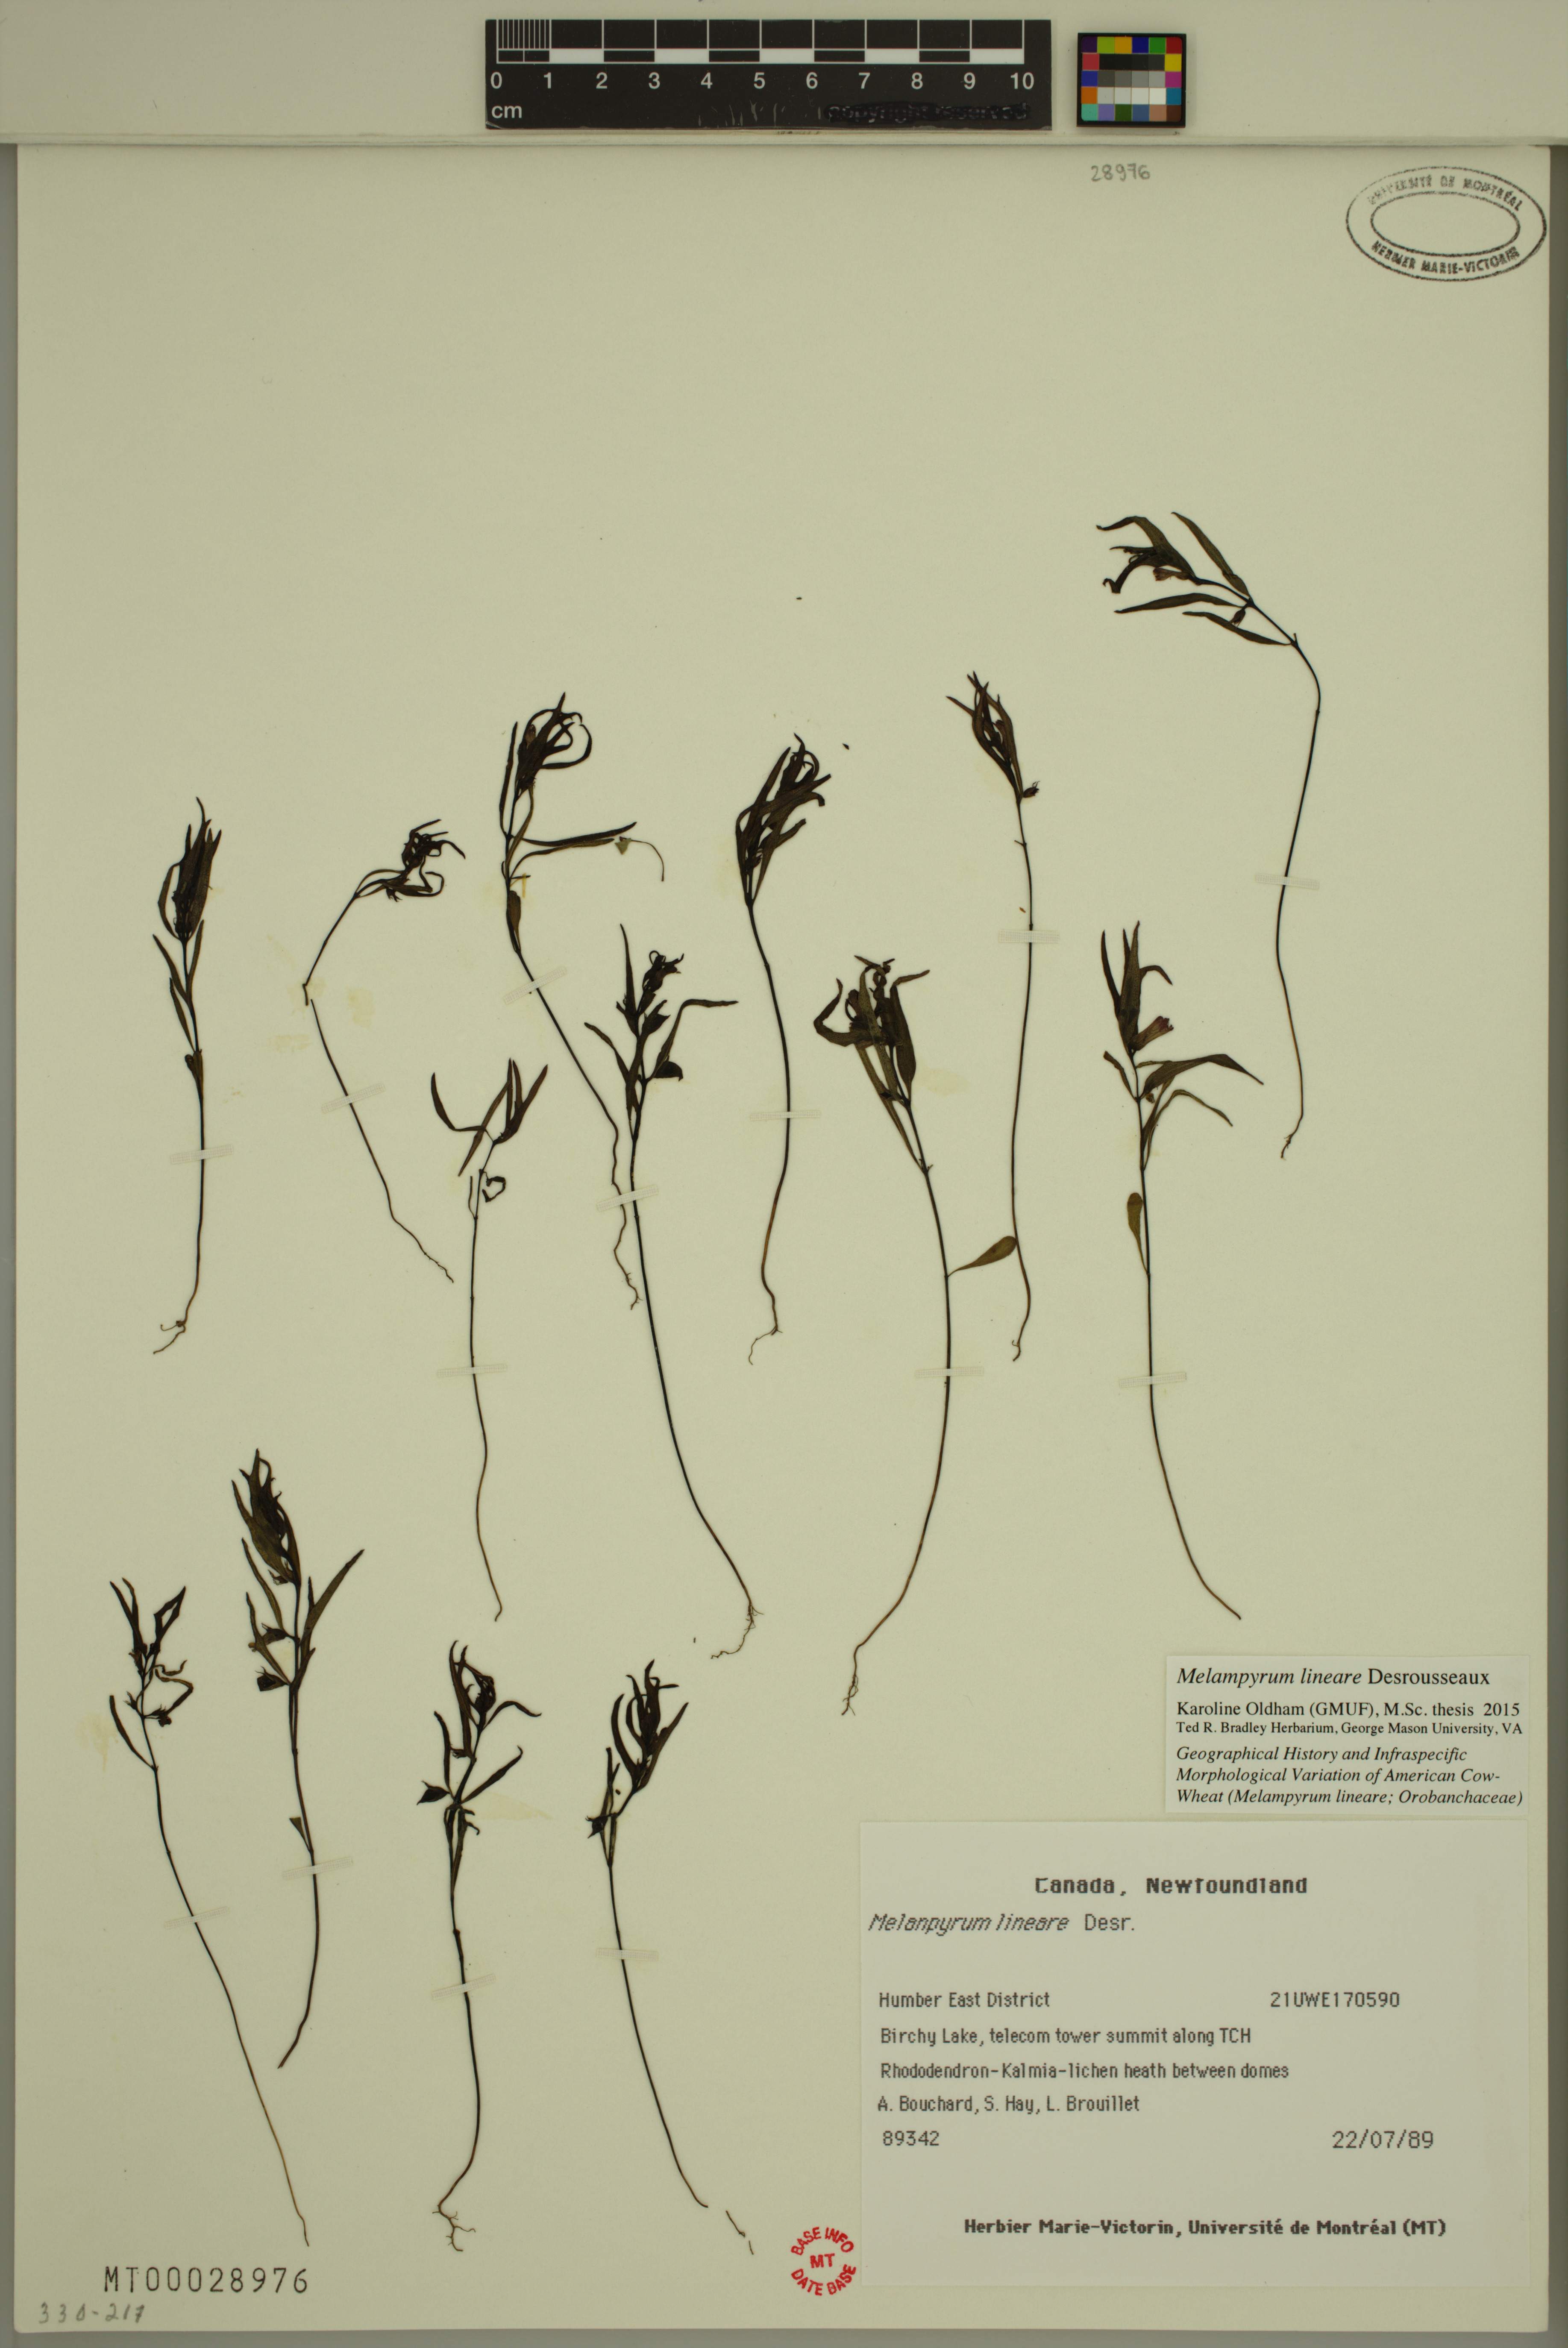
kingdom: Plantae
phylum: Tracheophyta
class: Magnoliopsida
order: Lamiales
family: Orobanchaceae
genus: Melampyrum
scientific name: Melampyrum lineare
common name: American cow-wheat
